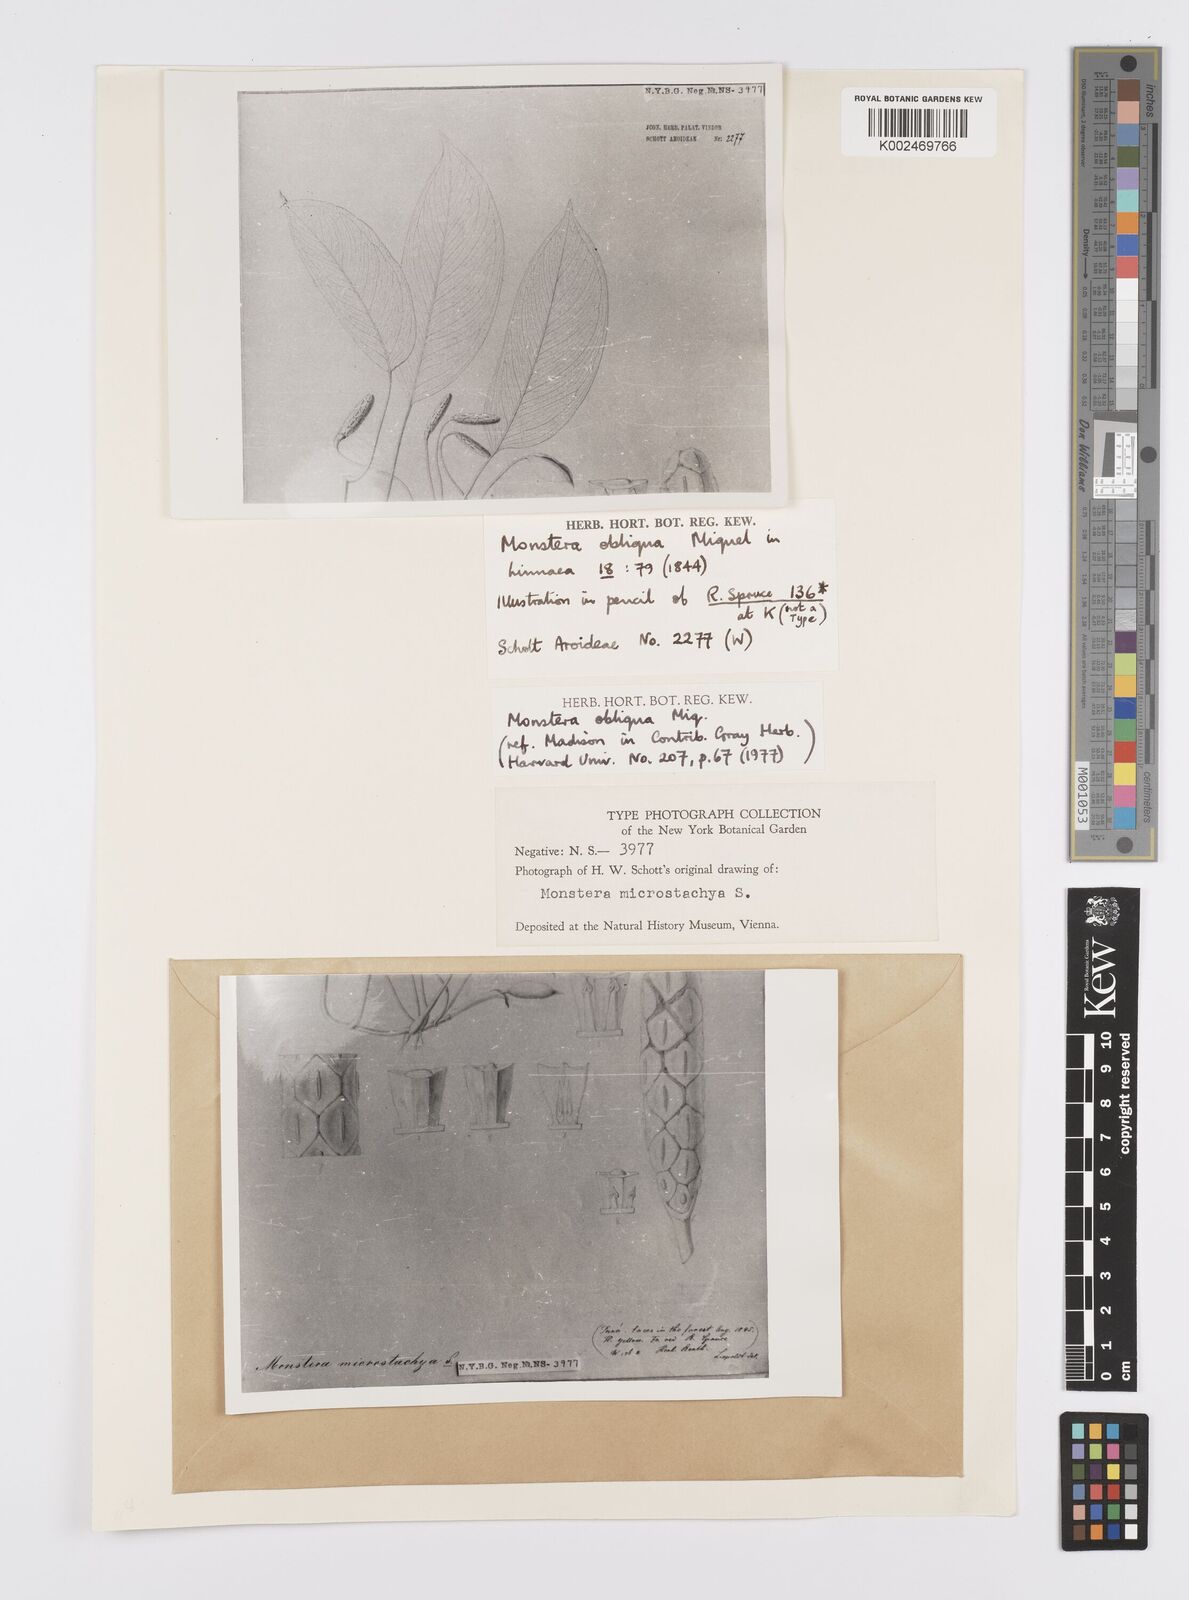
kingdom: Plantae
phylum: Tracheophyta
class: Liliopsida
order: Alismatales
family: Araceae
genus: Monstera
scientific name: Monstera obliqua
